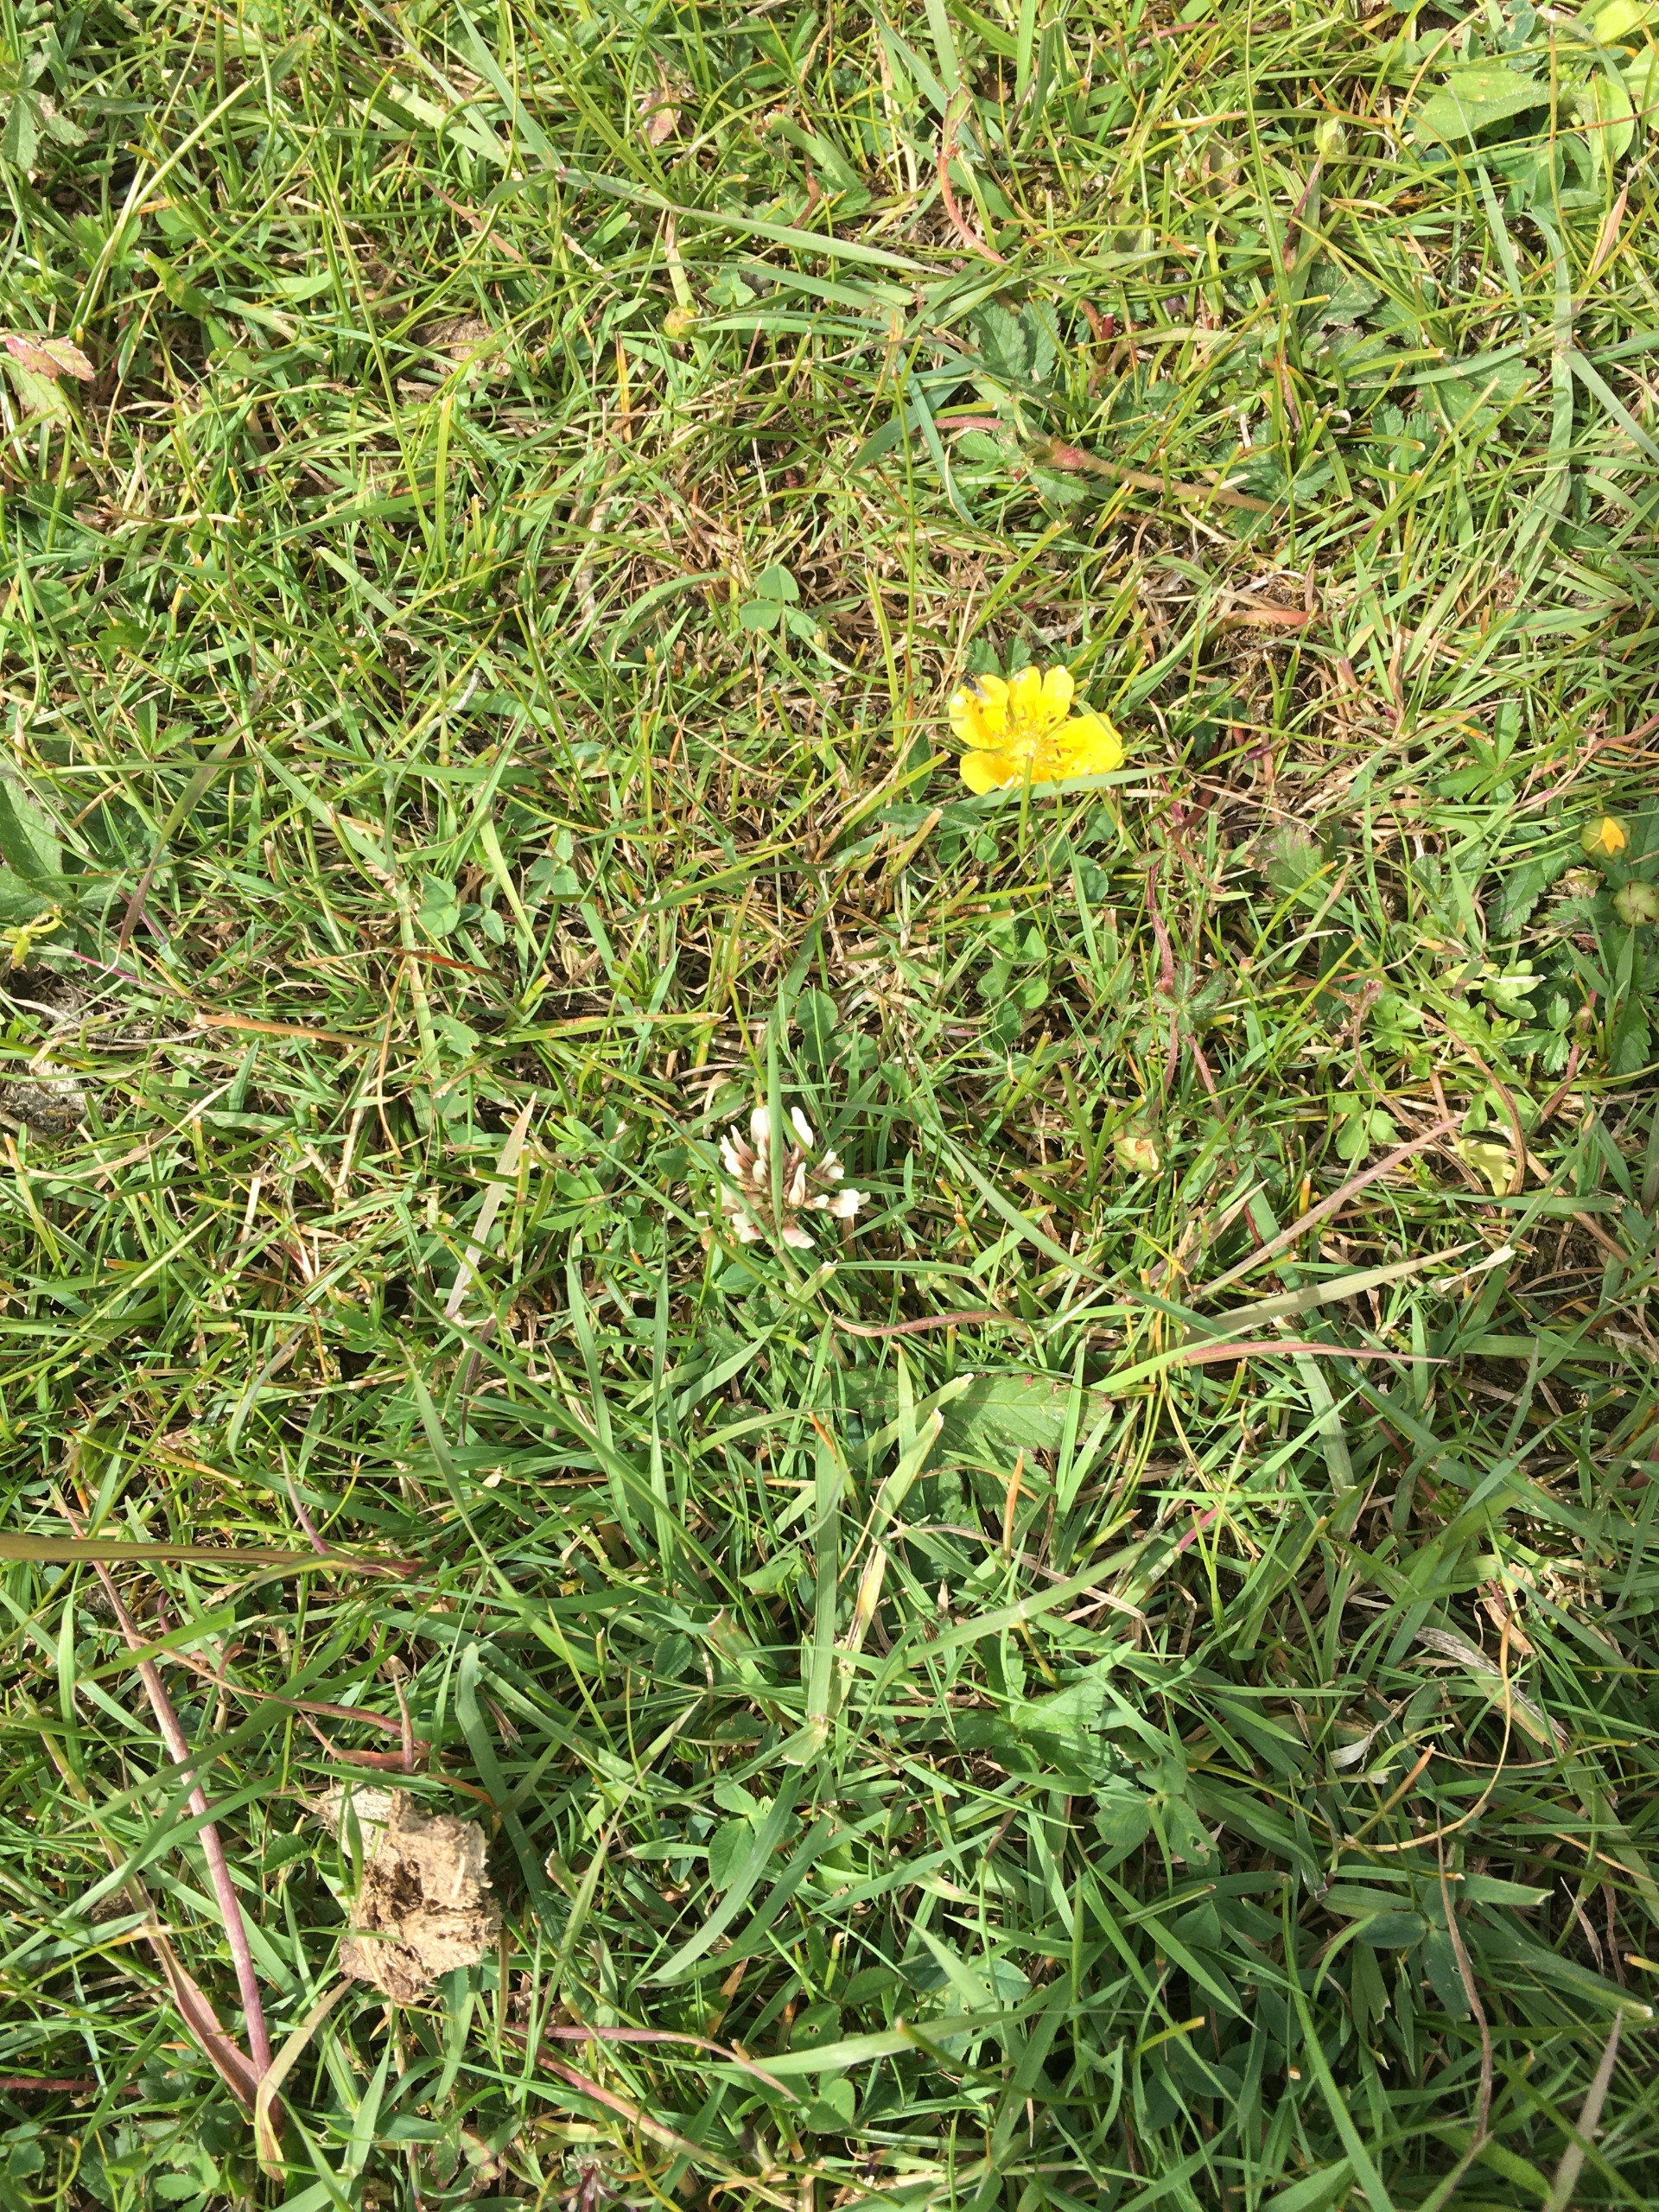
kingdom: Plantae
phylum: Tracheophyta
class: Magnoliopsida
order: Fabales
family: Fabaceae
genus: Trifolium
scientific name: Trifolium repens
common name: Hvid-kløver
